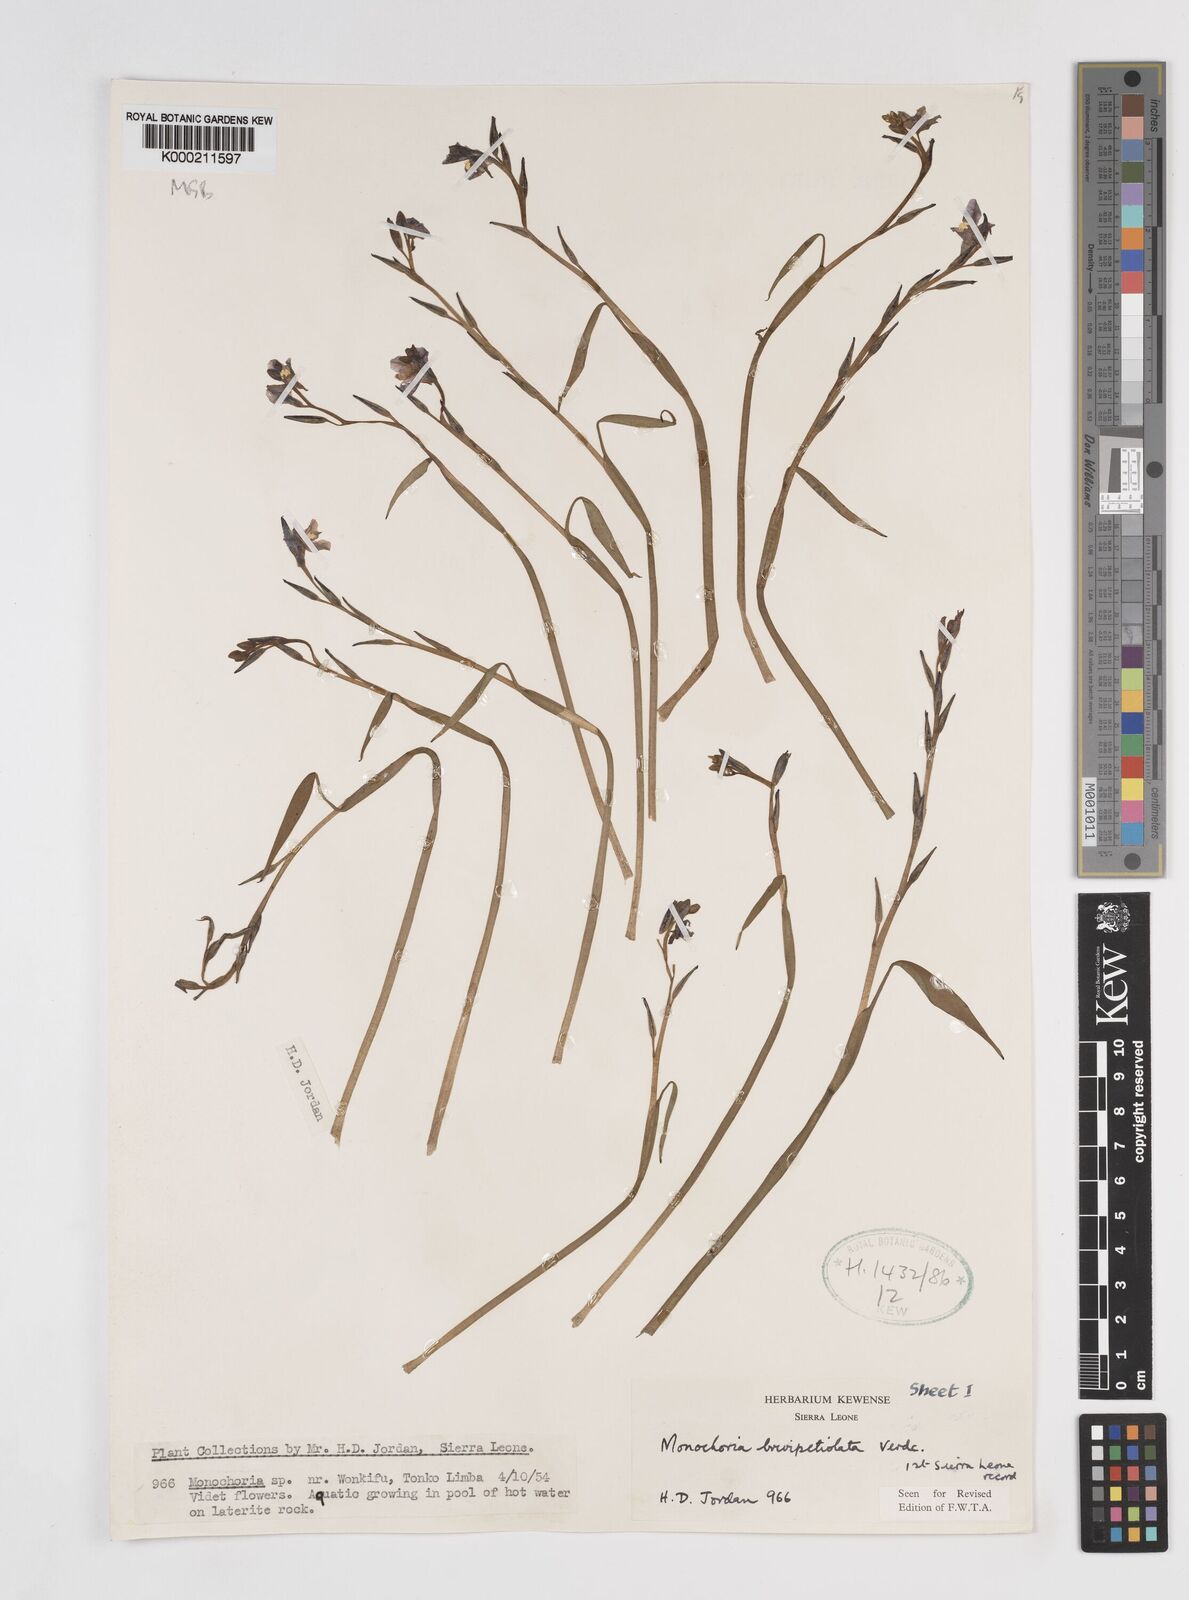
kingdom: Plantae
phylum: Tracheophyta
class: Liliopsida
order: Commelinales
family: Pontederiaceae
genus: Pontederia
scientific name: Pontederia brevipetiolata
